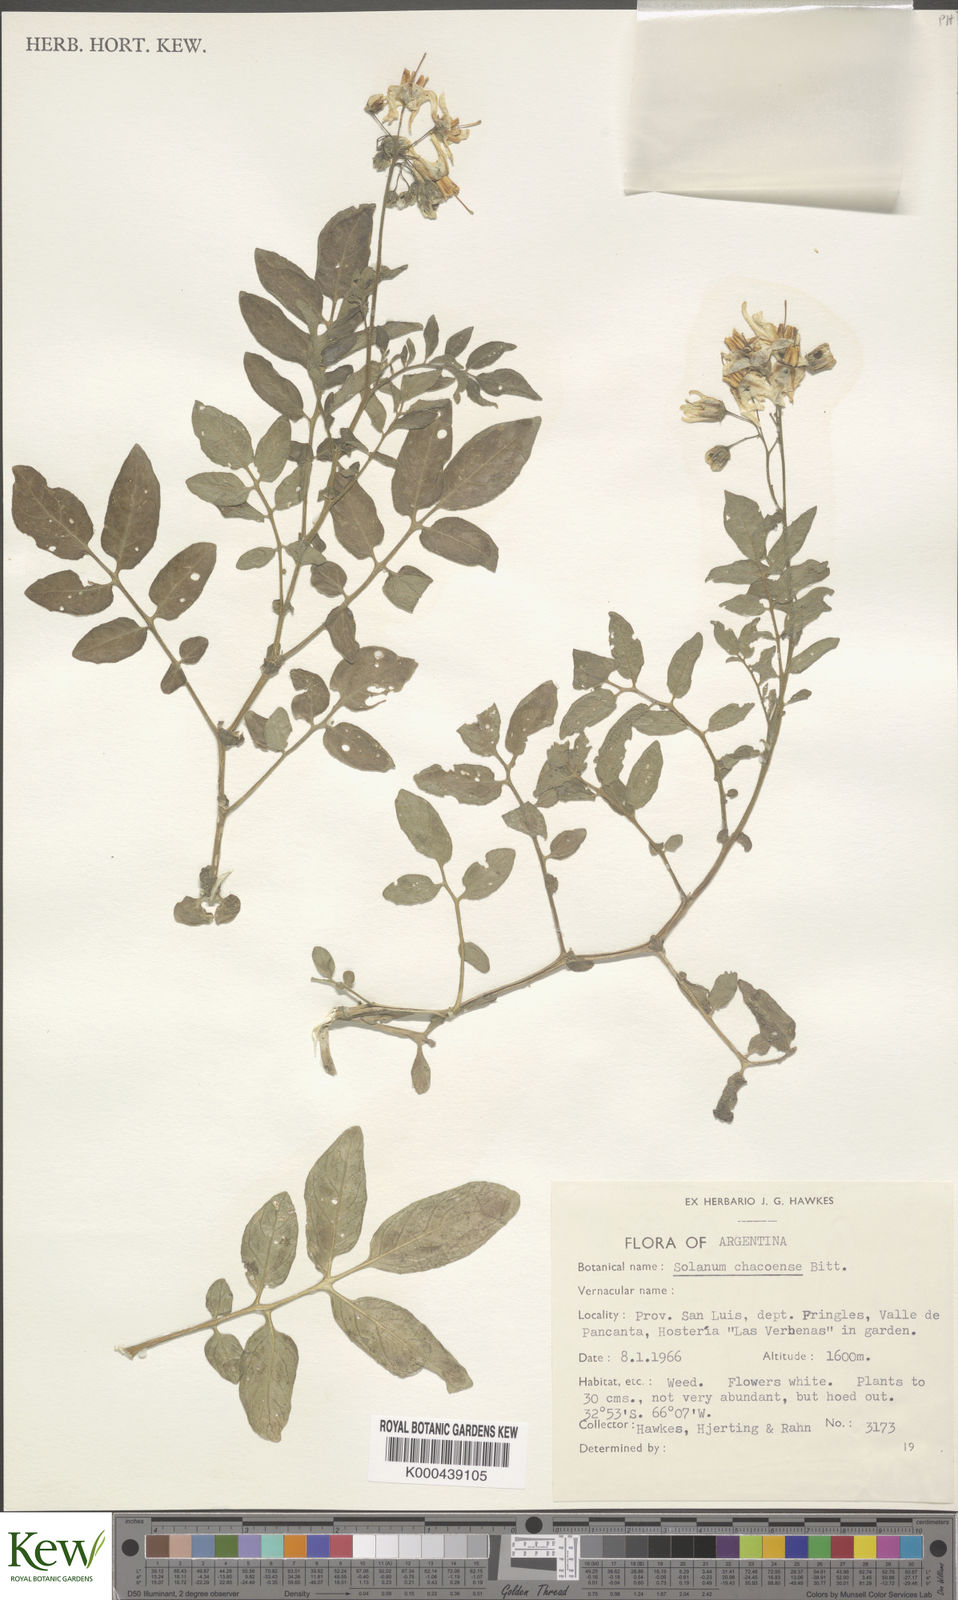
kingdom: Plantae
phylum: Tracheophyta
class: Magnoliopsida
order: Solanales
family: Solanaceae
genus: Solanum
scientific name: Solanum chacoense
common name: Chaco potato
